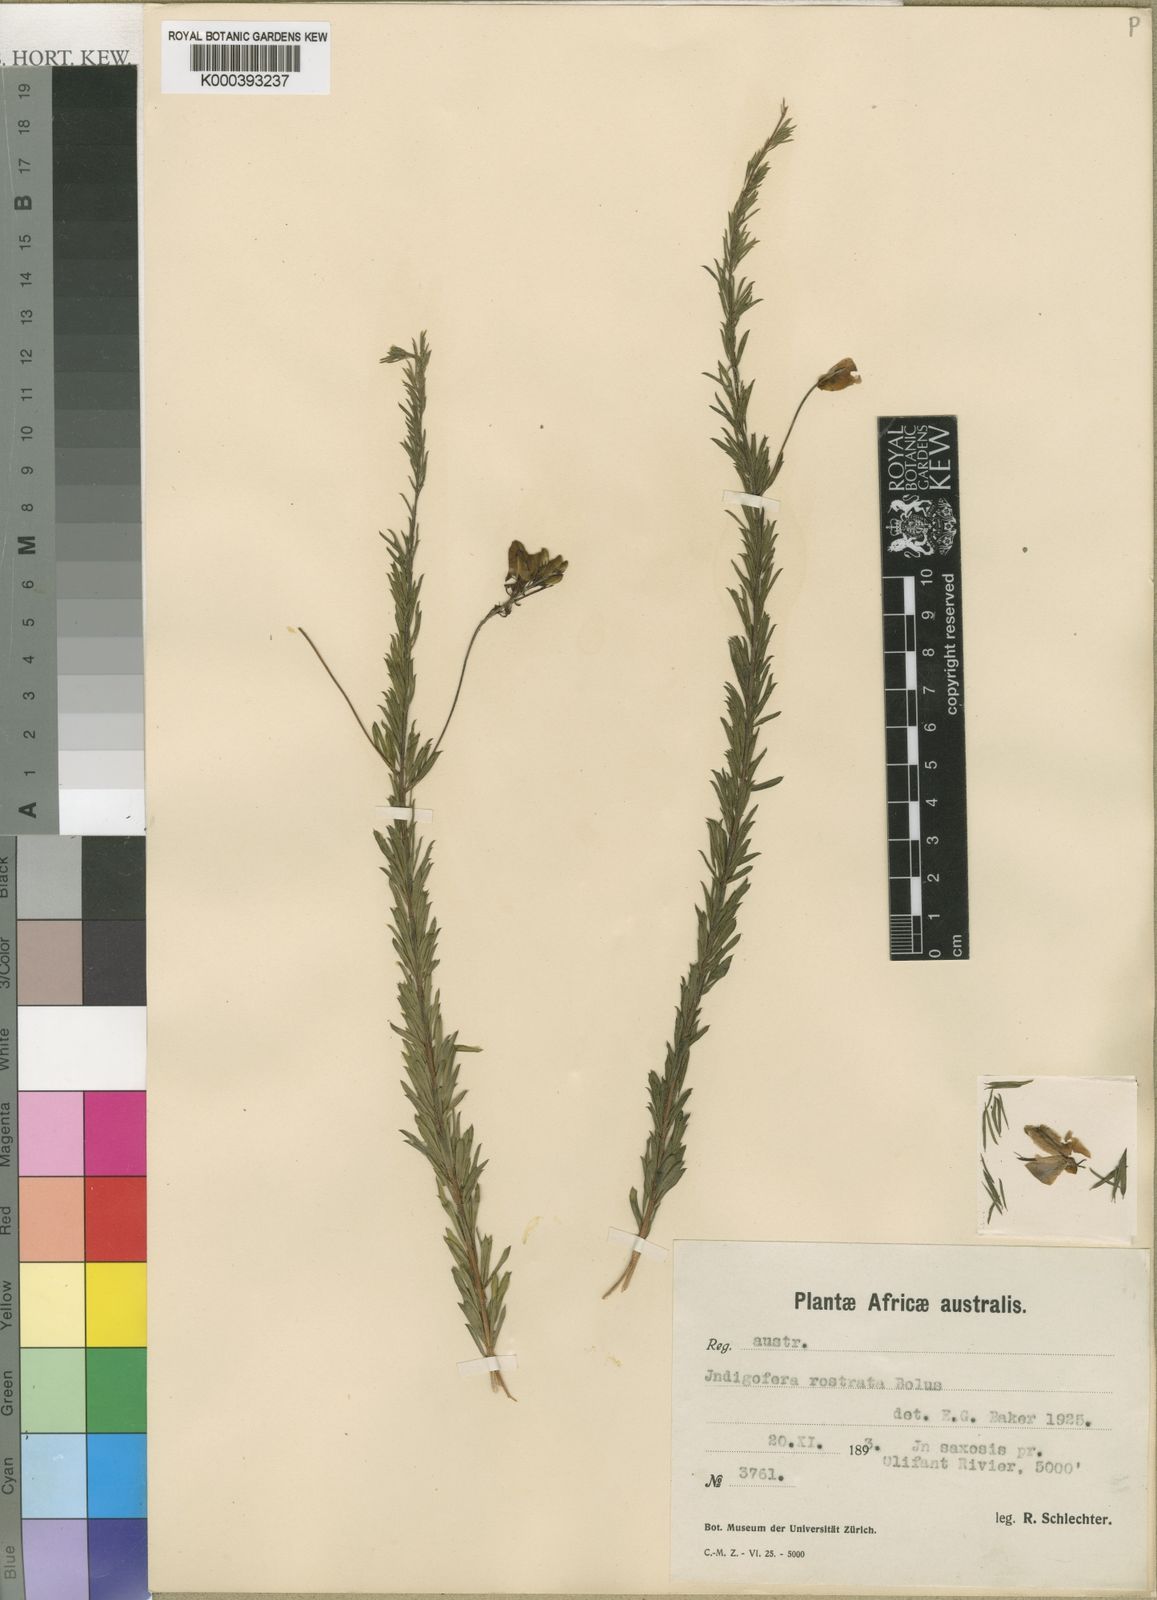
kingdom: Plantae
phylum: Tracheophyta
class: Magnoliopsida
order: Fabales
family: Fabaceae
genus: Indigofera
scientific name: Indigofera rostrata
